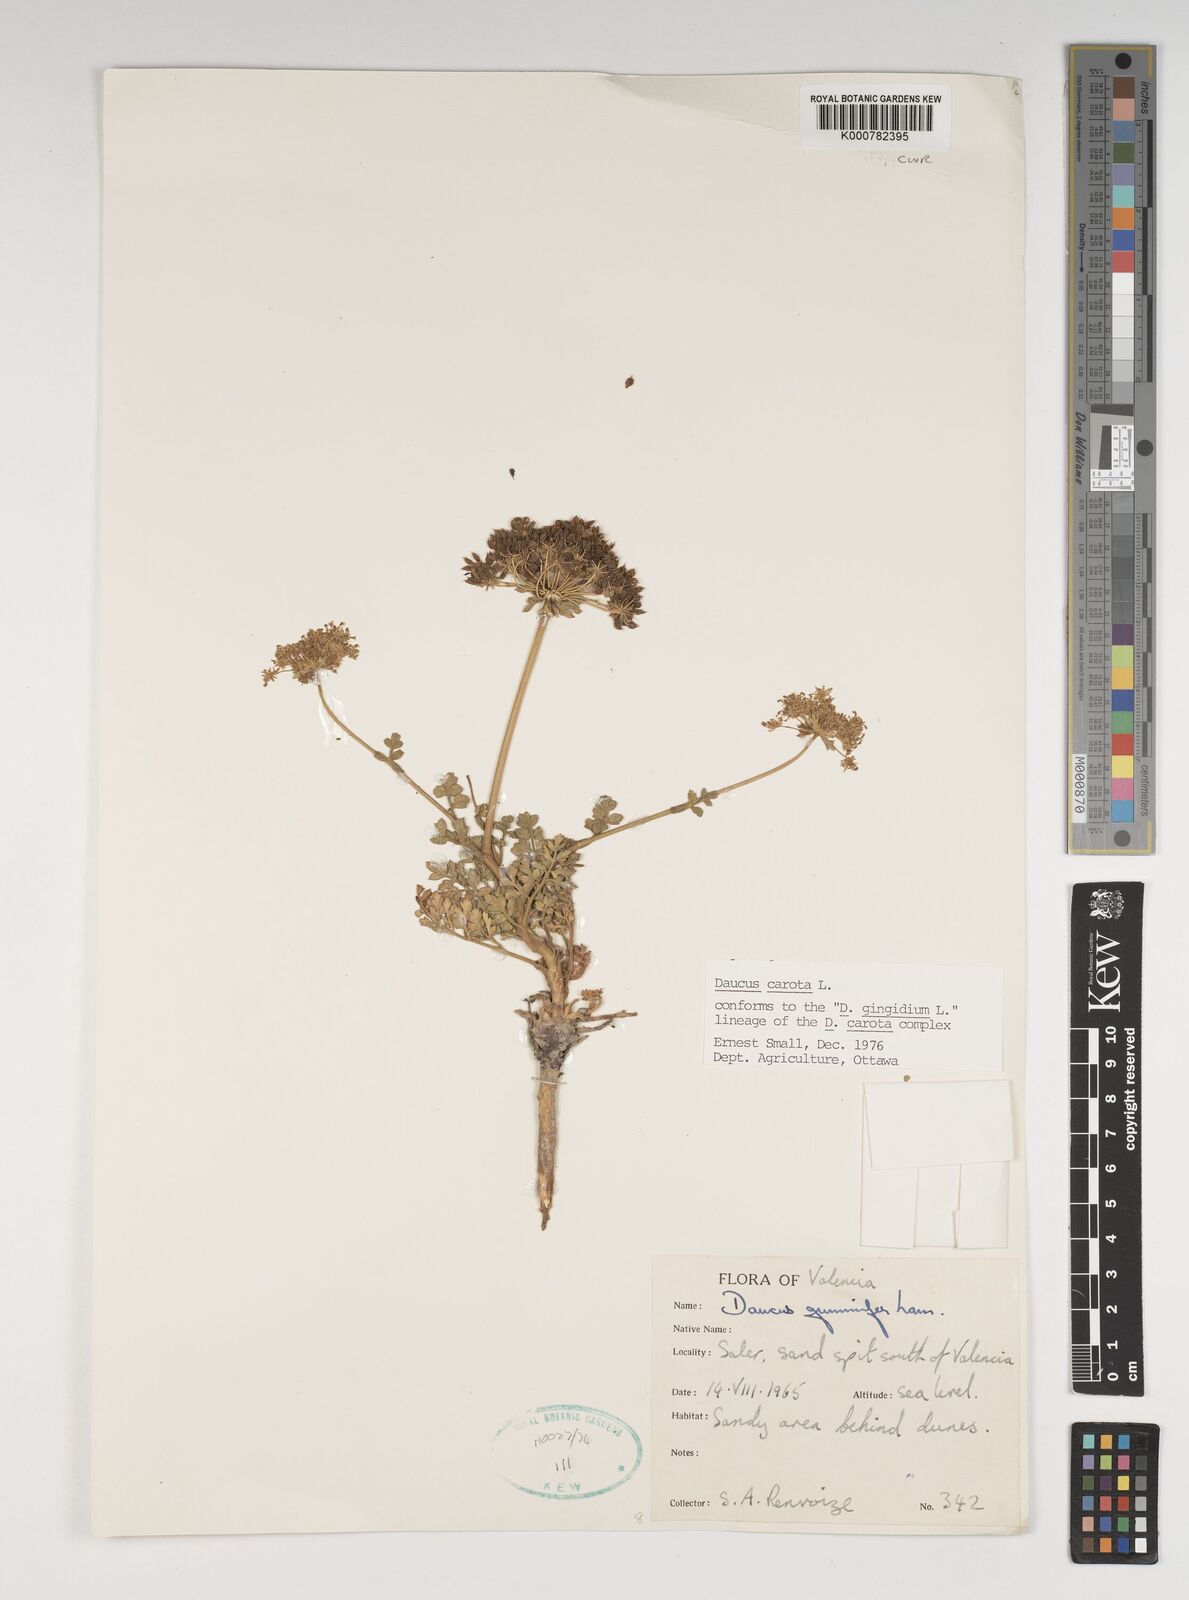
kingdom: Plantae
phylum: Tracheophyta
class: Magnoliopsida
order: Apiales
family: Apiaceae
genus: Daucus
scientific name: Daucus carota
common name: Wild carrot
